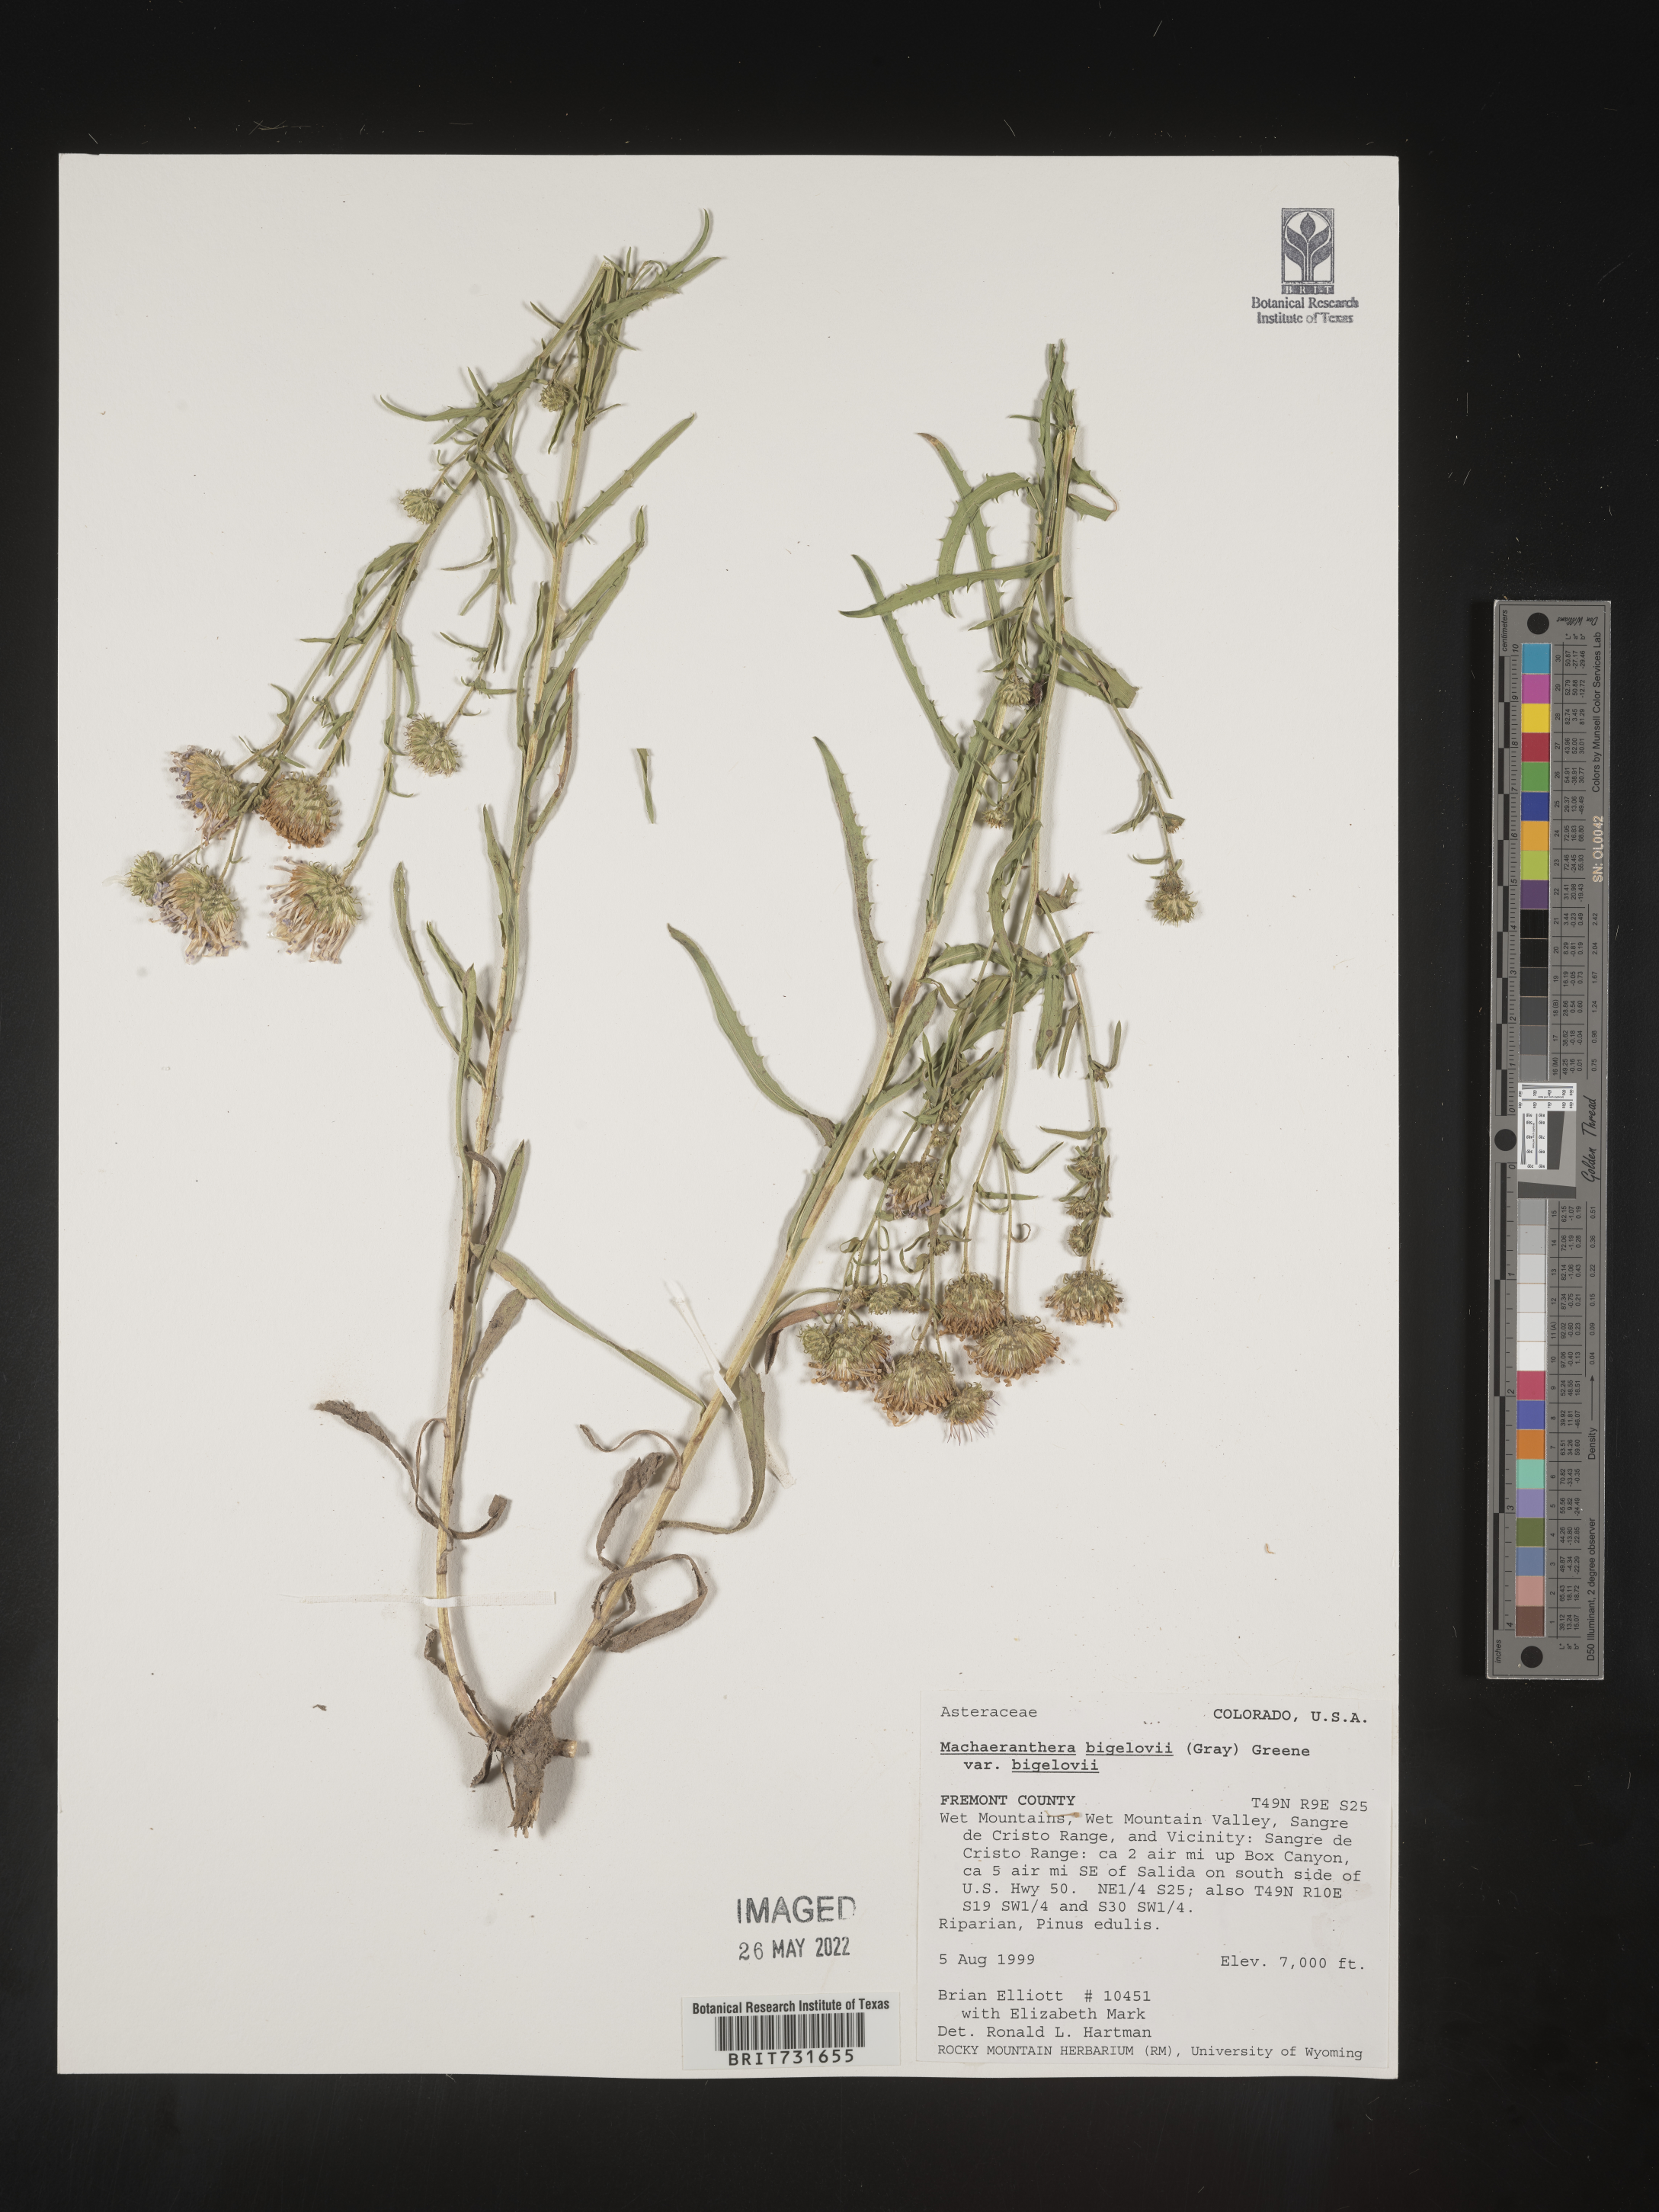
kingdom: Plantae
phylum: Tracheophyta
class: Magnoliopsida
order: Asterales
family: Asteraceae
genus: Dieteria
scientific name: Dieteria bigelovii
